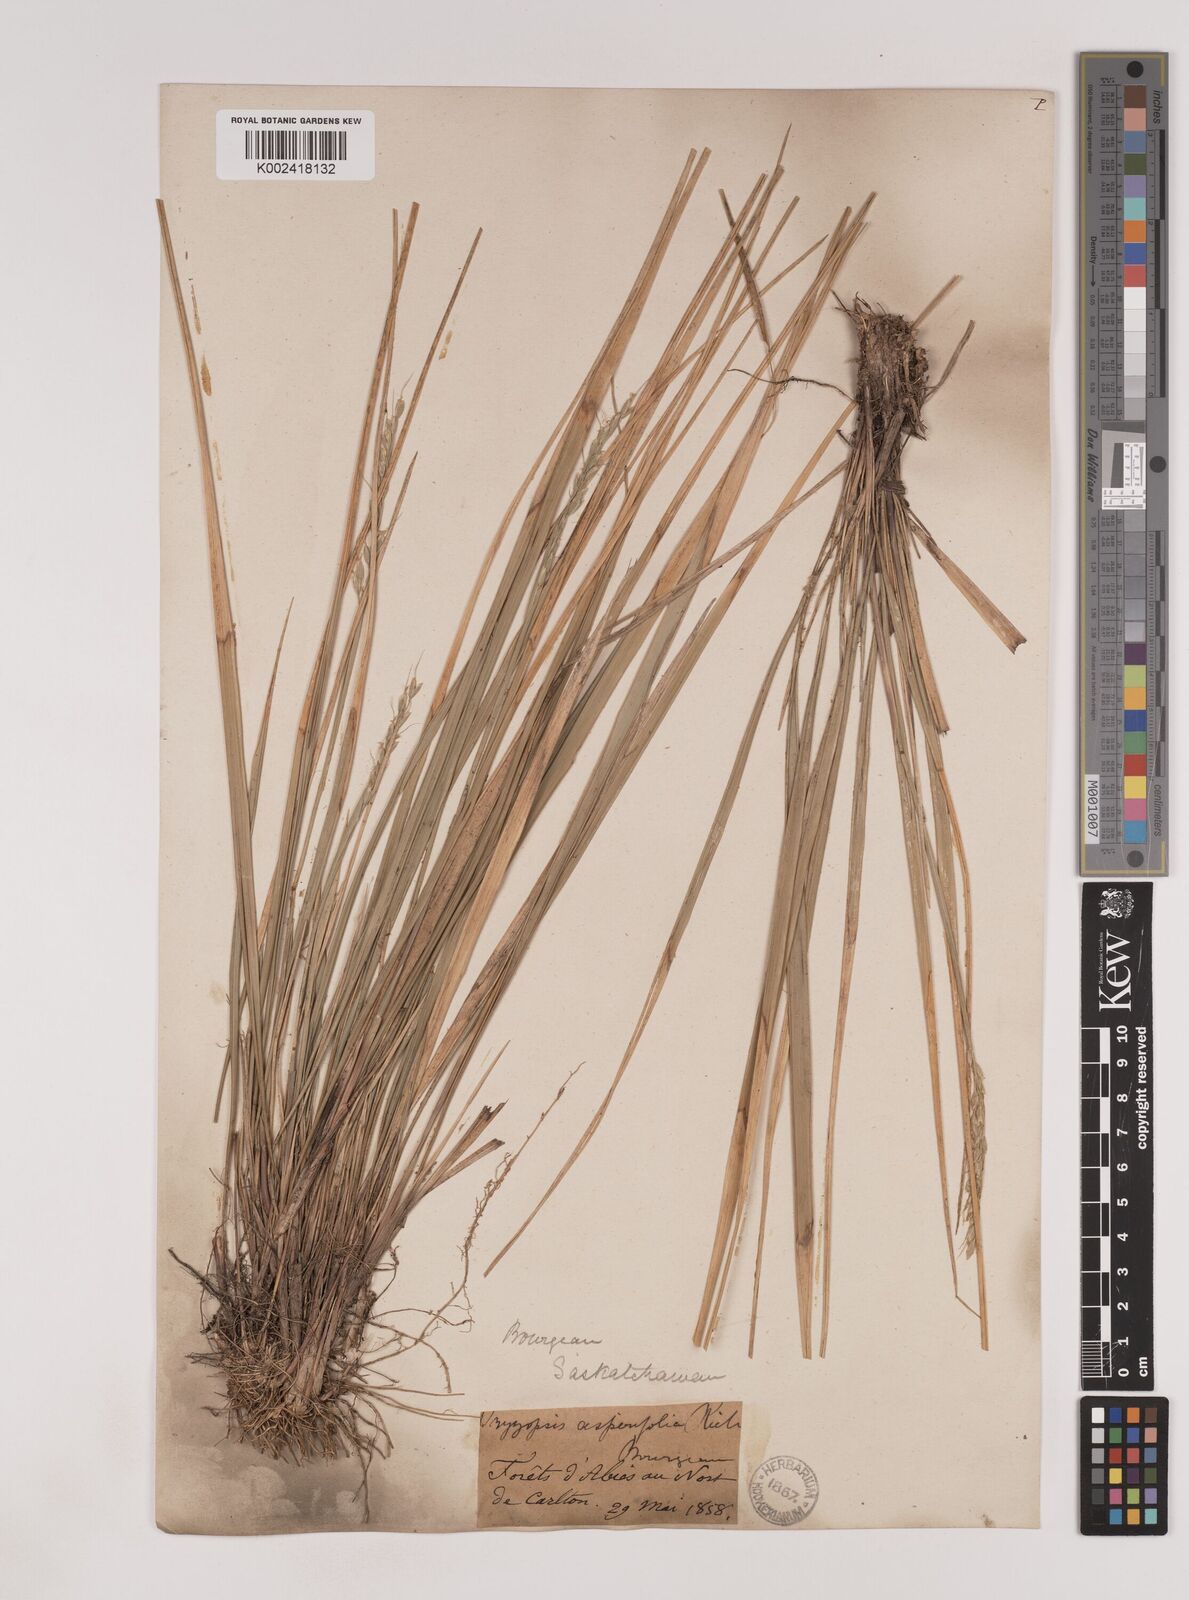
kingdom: Plantae
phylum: Tracheophyta
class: Liliopsida
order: Poales
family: Poaceae
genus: Oryzopsis
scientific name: Oryzopsis asperifolia
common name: Rough-leaved mountain rice
